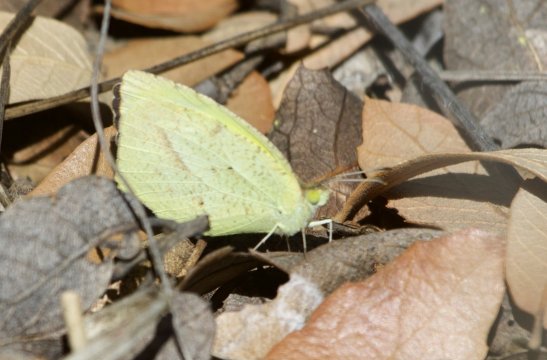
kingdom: Animalia
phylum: Arthropoda
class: Insecta
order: Lepidoptera
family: Pieridae
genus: Eurema
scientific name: Eurema mexicana
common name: Mexican Yellow
